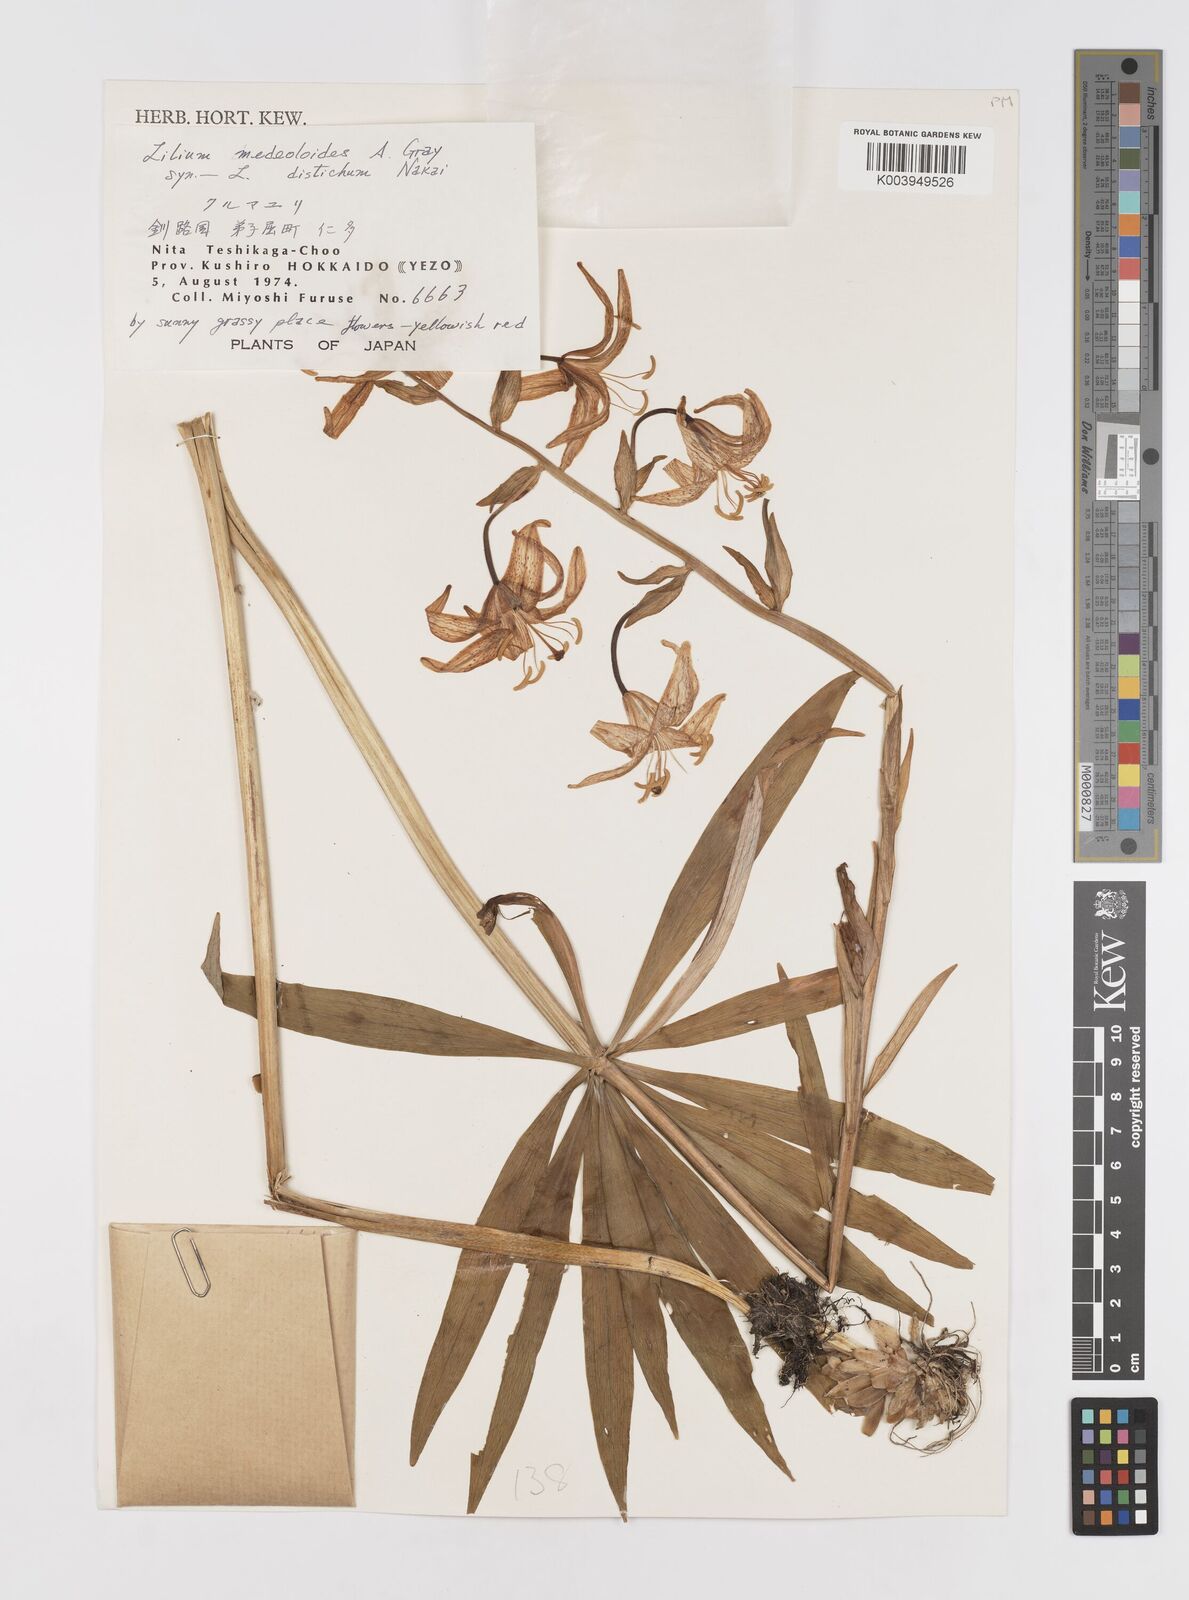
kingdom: Plantae
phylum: Tracheophyta
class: Liliopsida
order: Liliales
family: Liliaceae
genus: Lilium
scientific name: Lilium medeoloides
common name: Wheel lily
